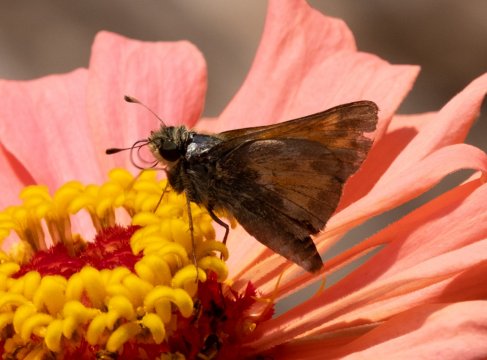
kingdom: Animalia
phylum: Arthropoda
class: Insecta
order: Lepidoptera
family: Hesperiidae
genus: Atalopedes
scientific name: Atalopedes campestris
